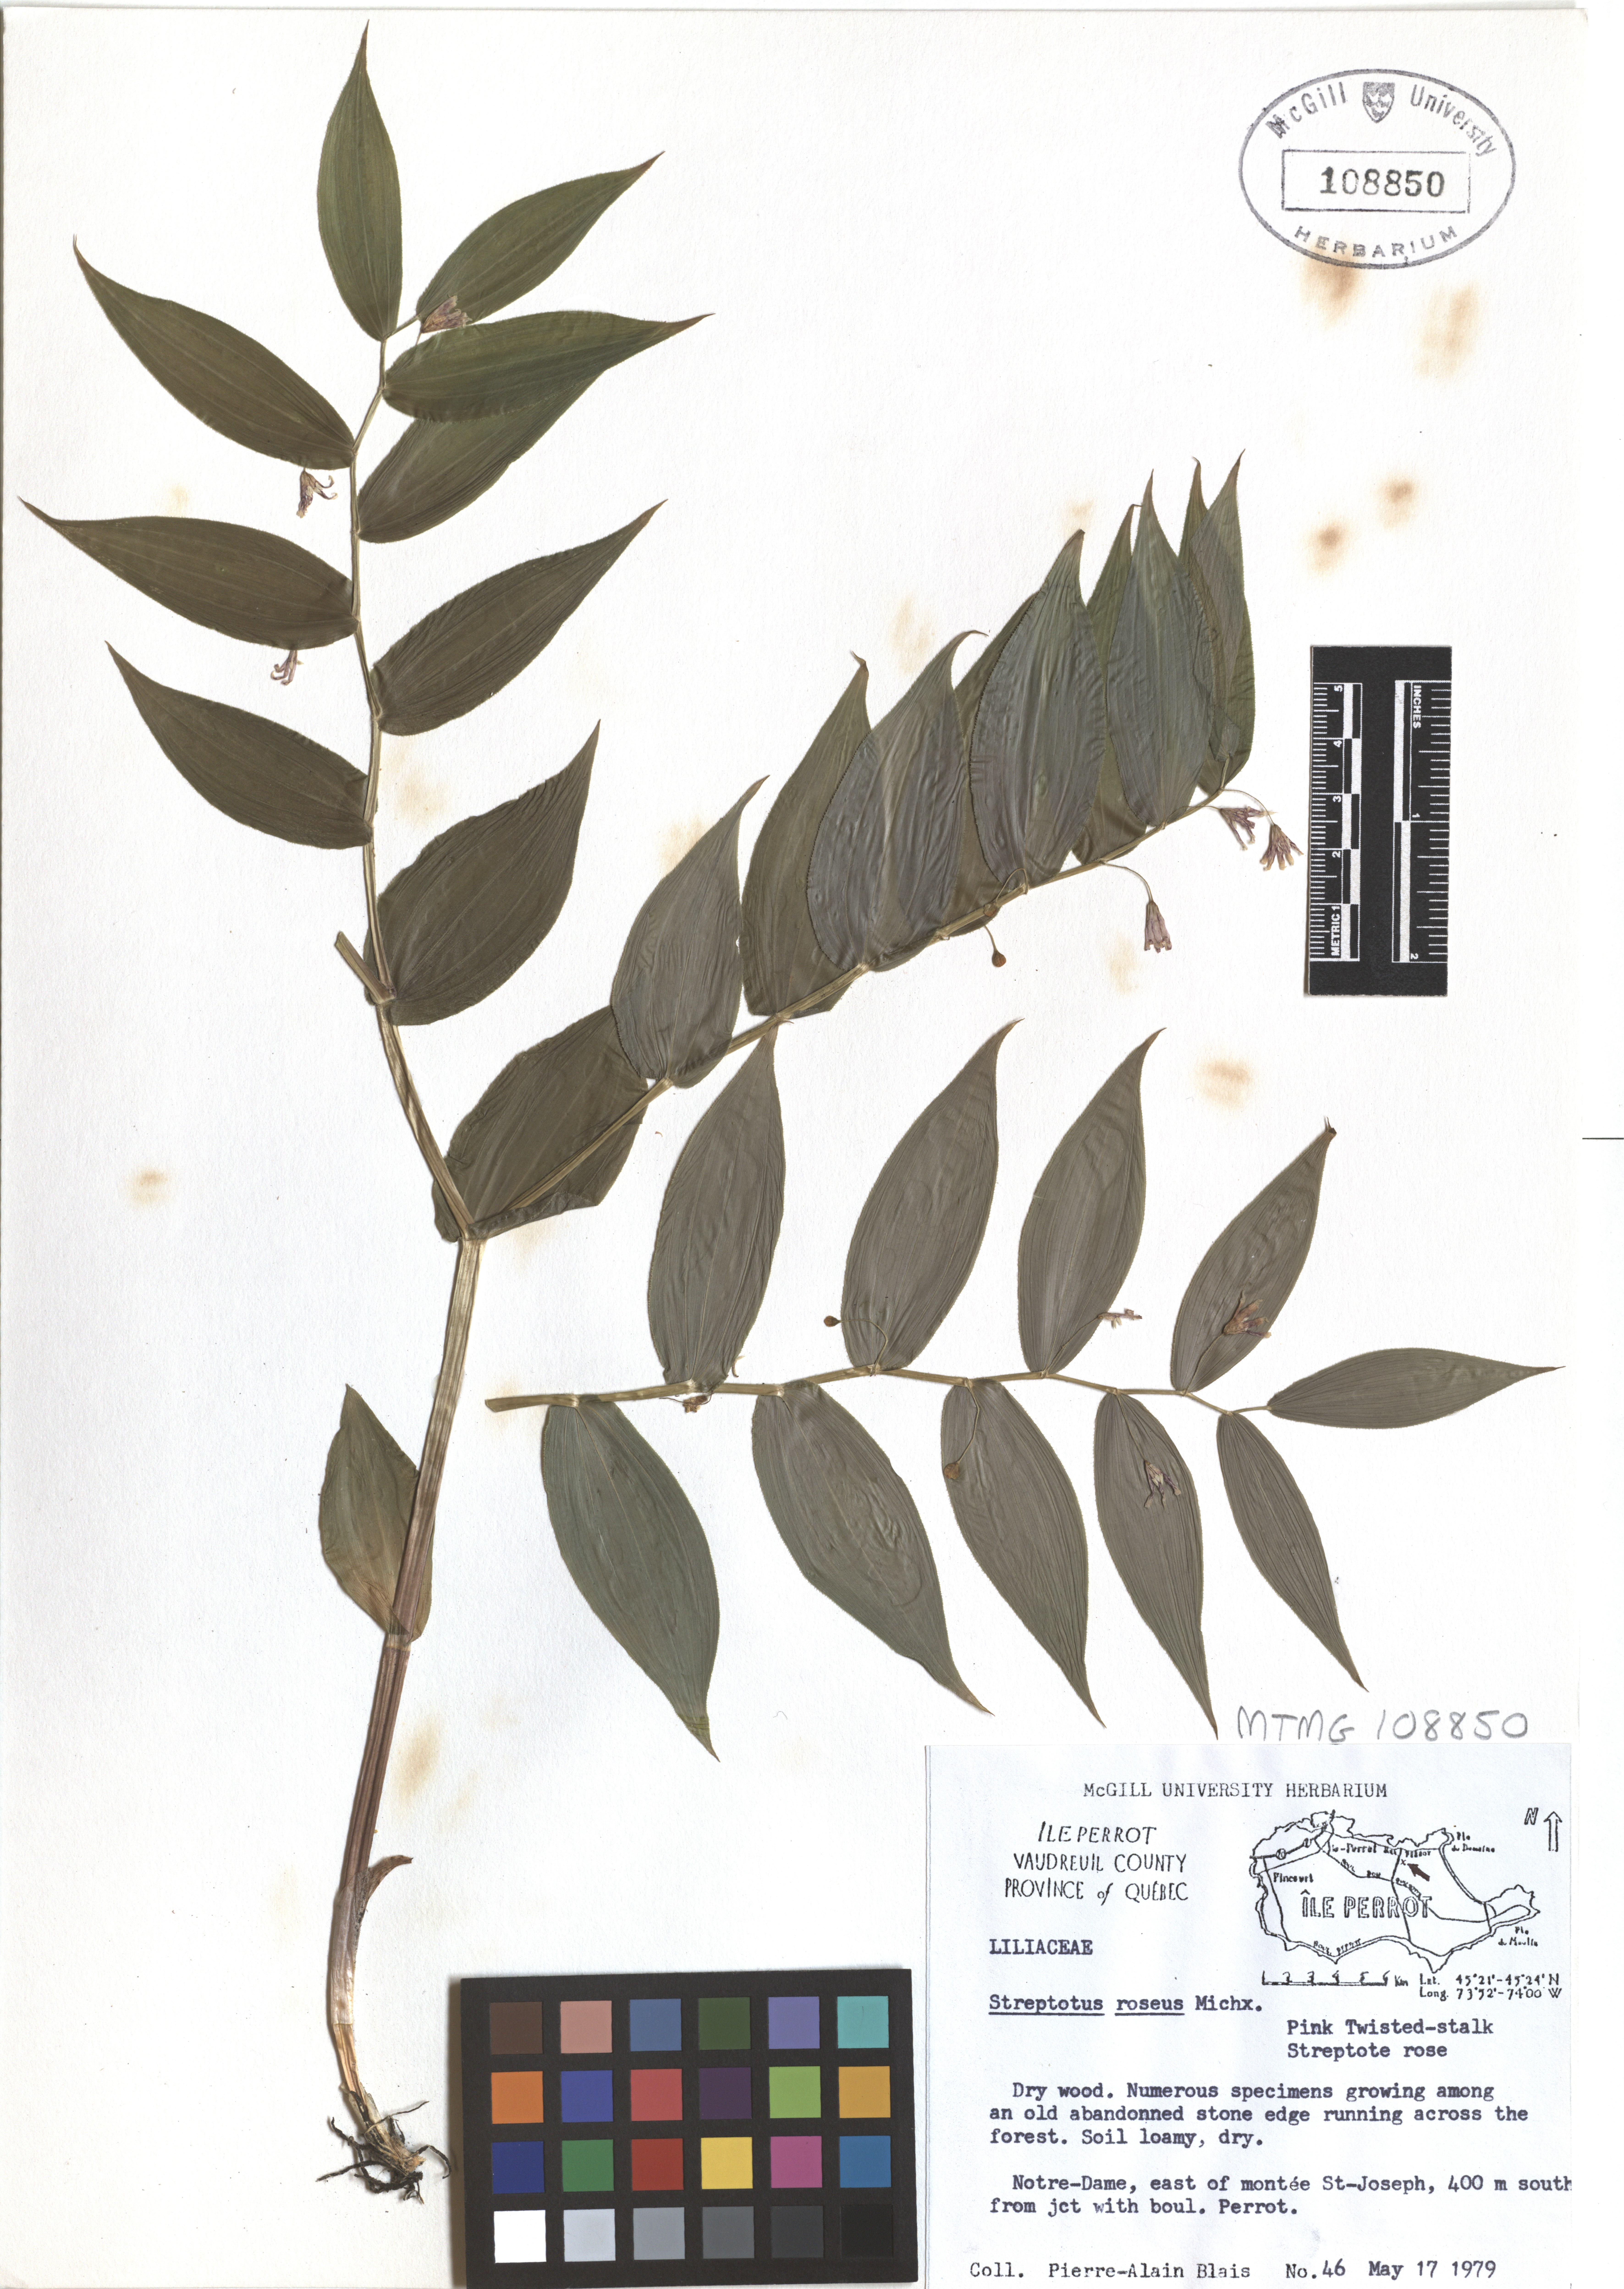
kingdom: Plantae
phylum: Tracheophyta
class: Liliopsida
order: Liliales
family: Liliaceae
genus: Streptopus
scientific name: Streptopus lanceolatus
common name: Rose mandarin
